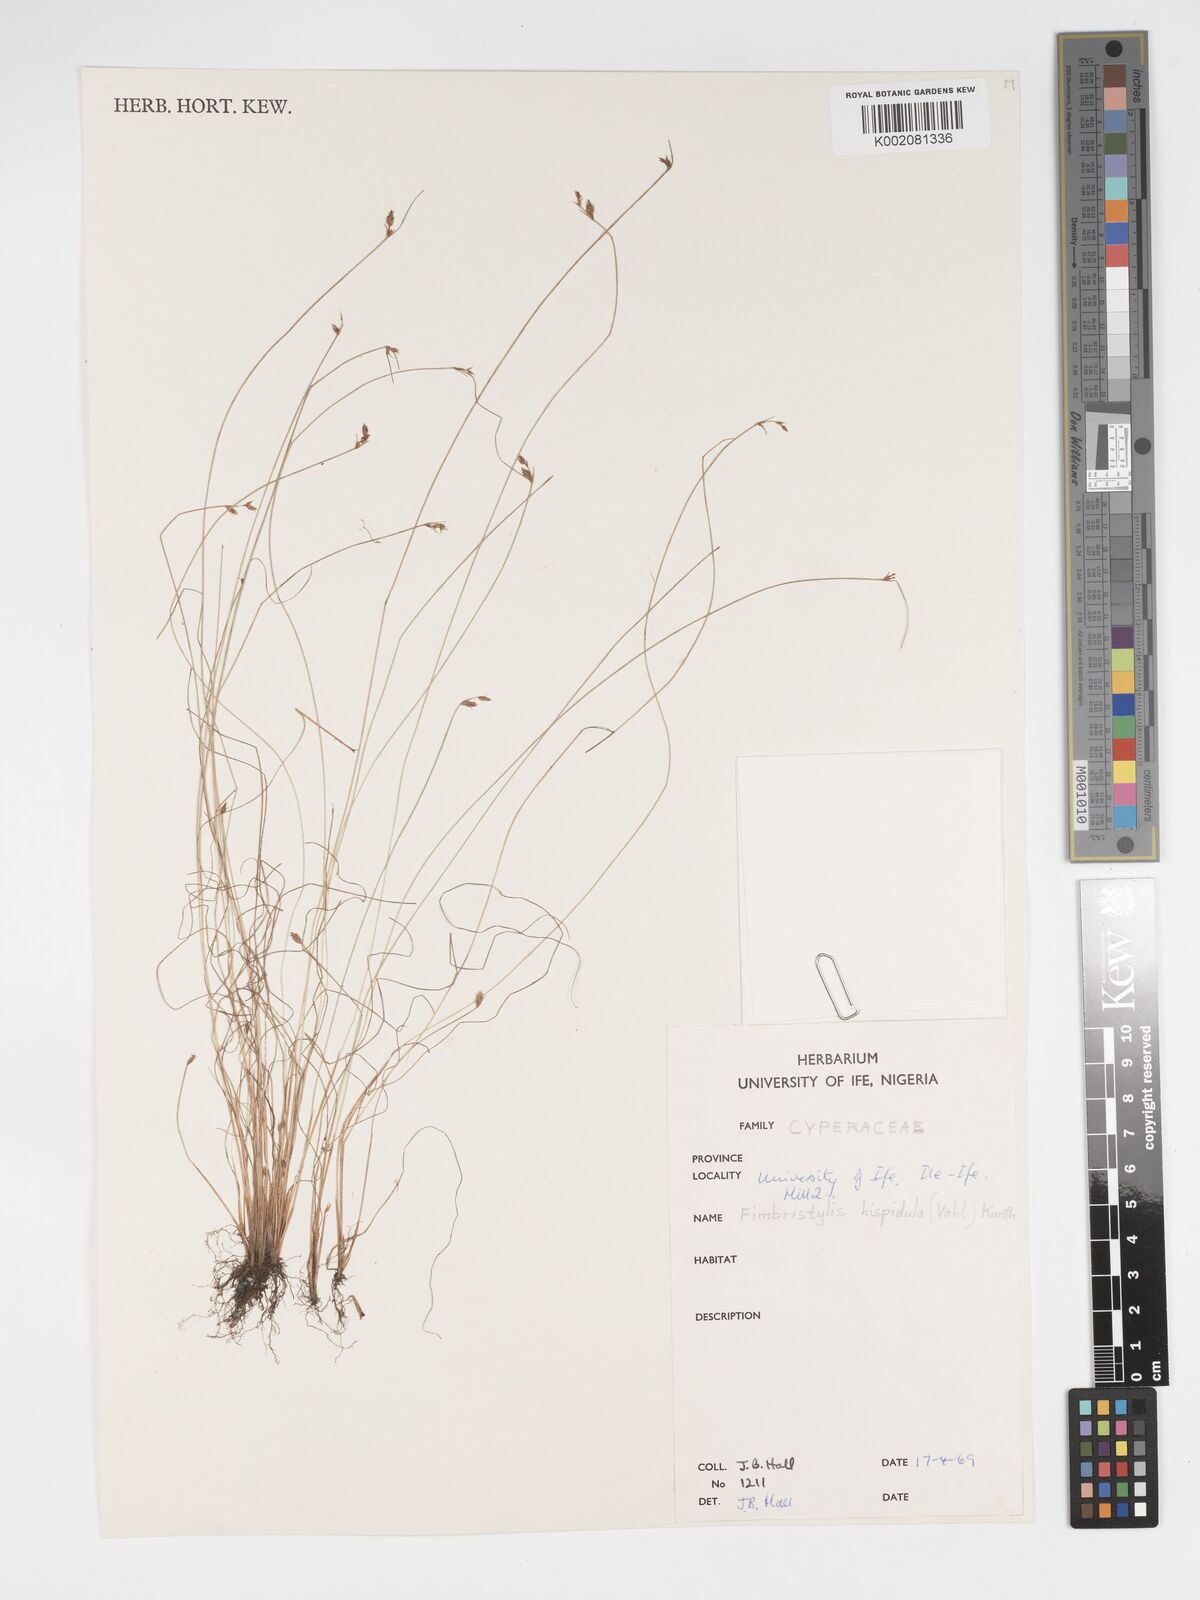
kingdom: Plantae
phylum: Tracheophyta
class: Liliopsida
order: Poales
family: Cyperaceae
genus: Bulbostylis
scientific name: Bulbostylis hispidula
